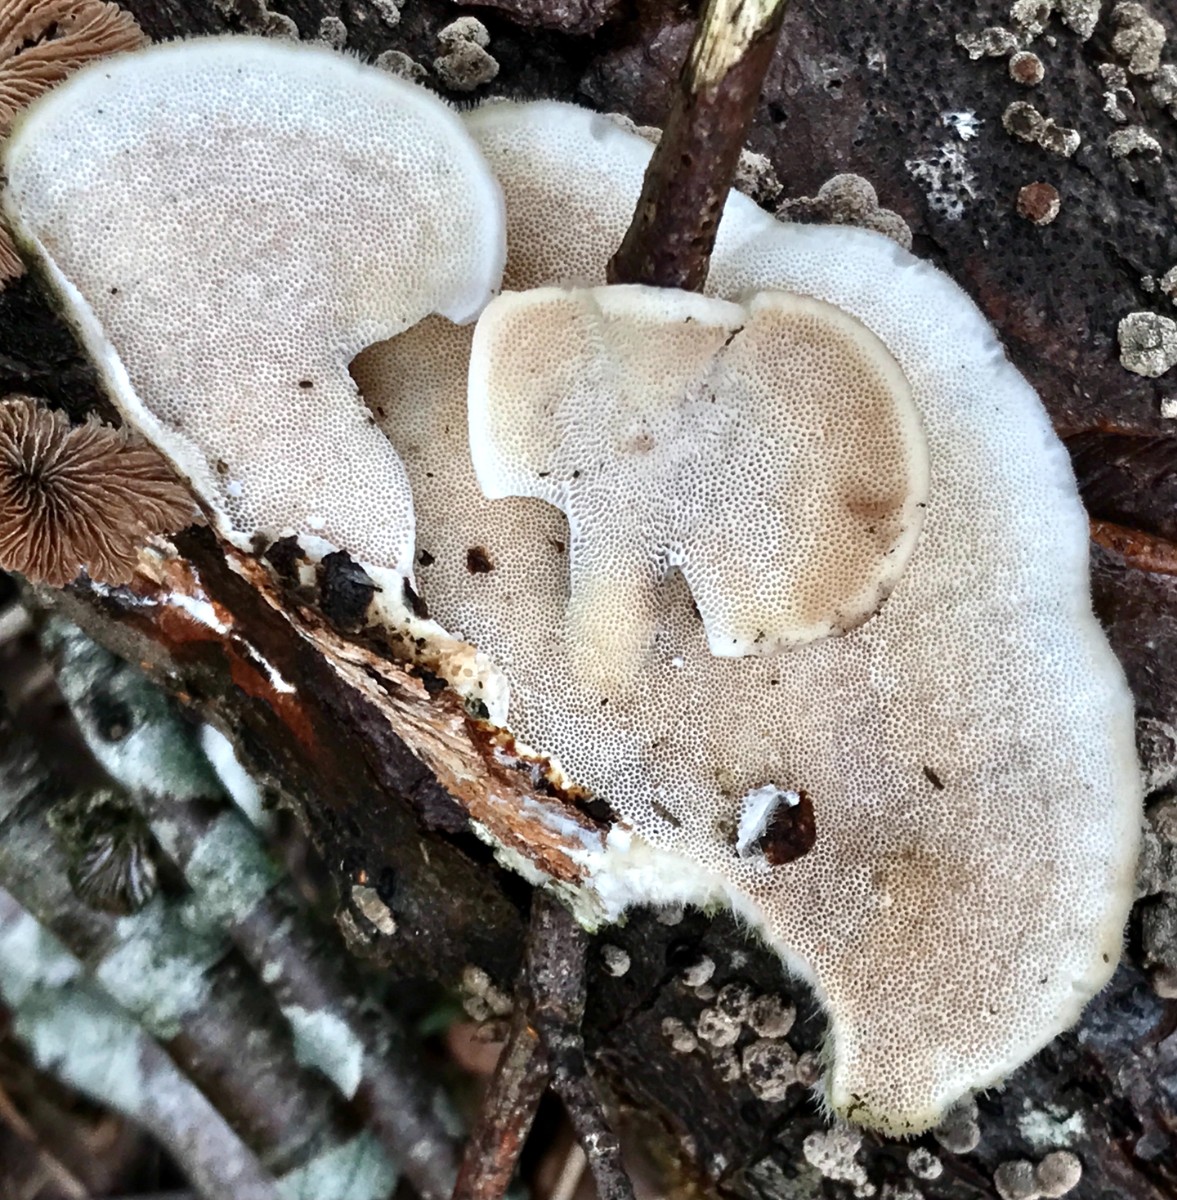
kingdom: Fungi
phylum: Basidiomycota
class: Agaricomycetes
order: Polyporales
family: Polyporaceae
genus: Trametes
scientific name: Trametes hirsuta
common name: håret læderporesvamp
